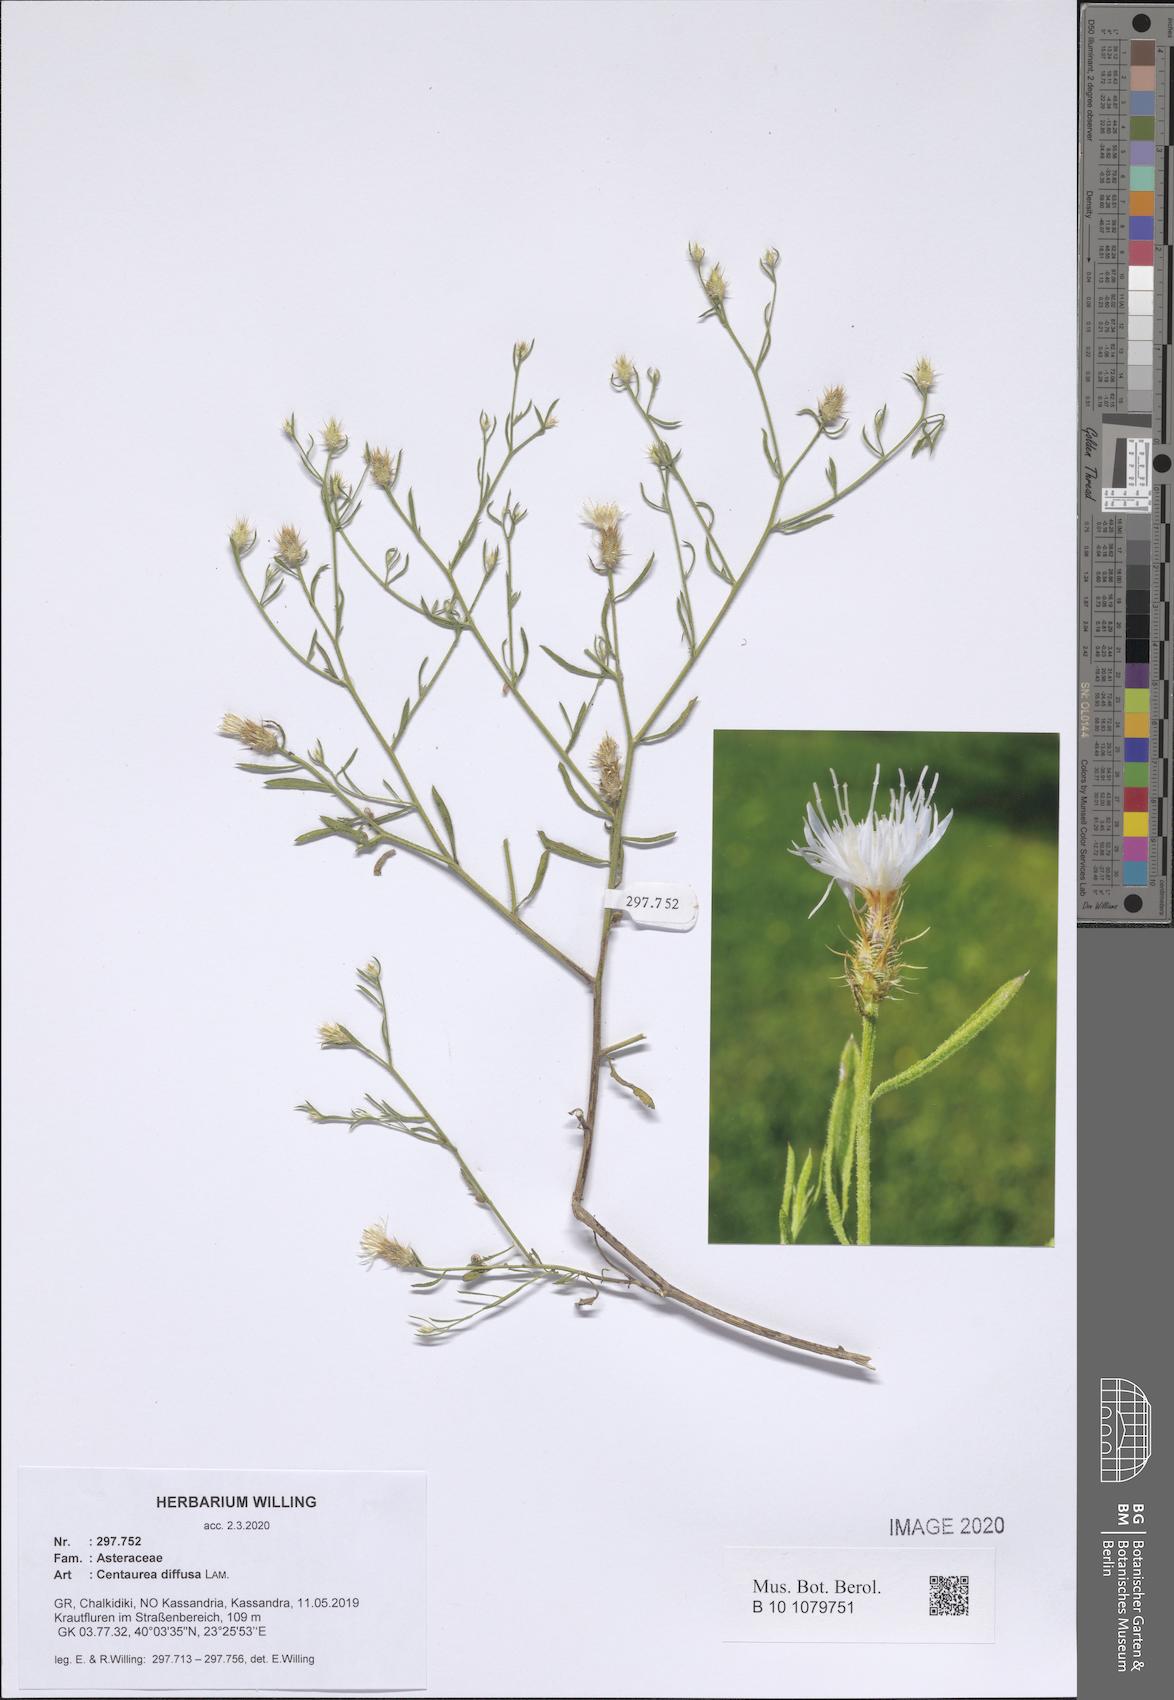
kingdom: Plantae
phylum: Tracheophyta
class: Magnoliopsida
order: Asterales
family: Asteraceae
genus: Centaurea
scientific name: Centaurea diffusa
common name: Diffuse knapweed
